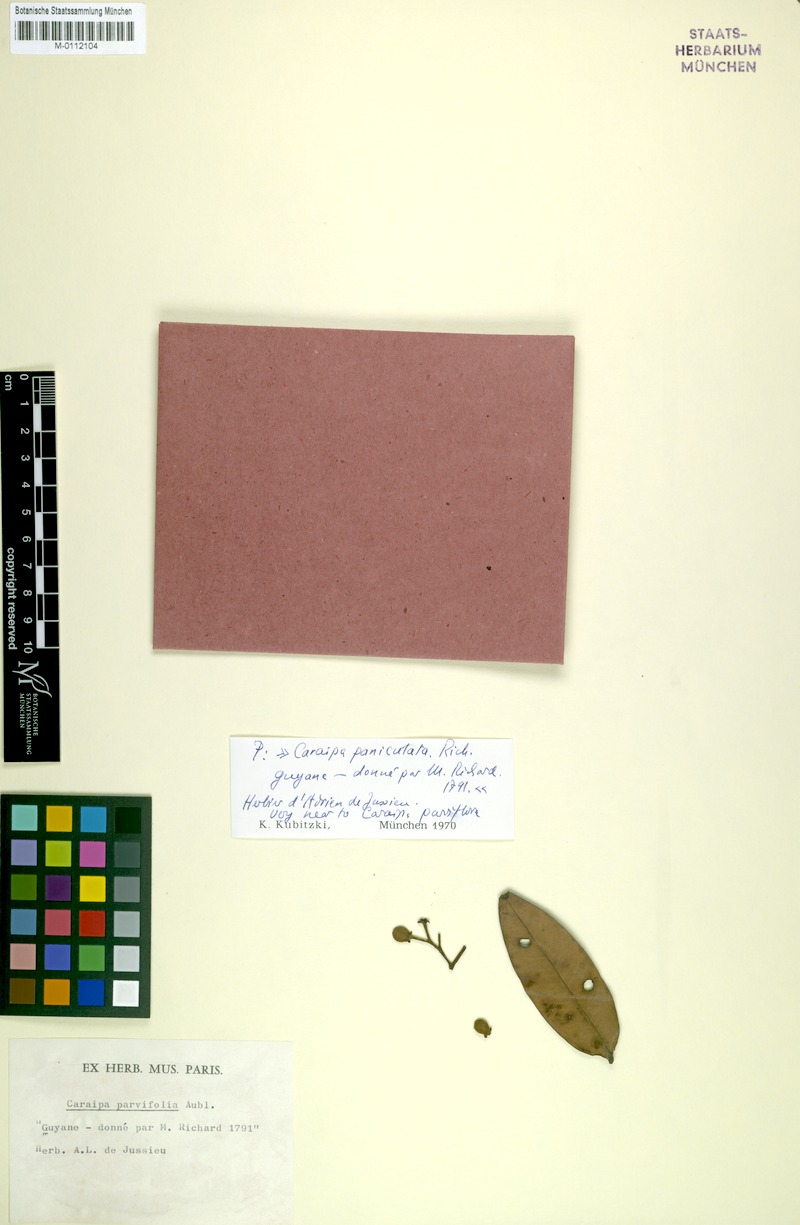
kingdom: Plantae
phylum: Tracheophyta
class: Magnoliopsida
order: Malpighiales
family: Calophyllaceae
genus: Caraipa
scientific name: Caraipa parvifolia
